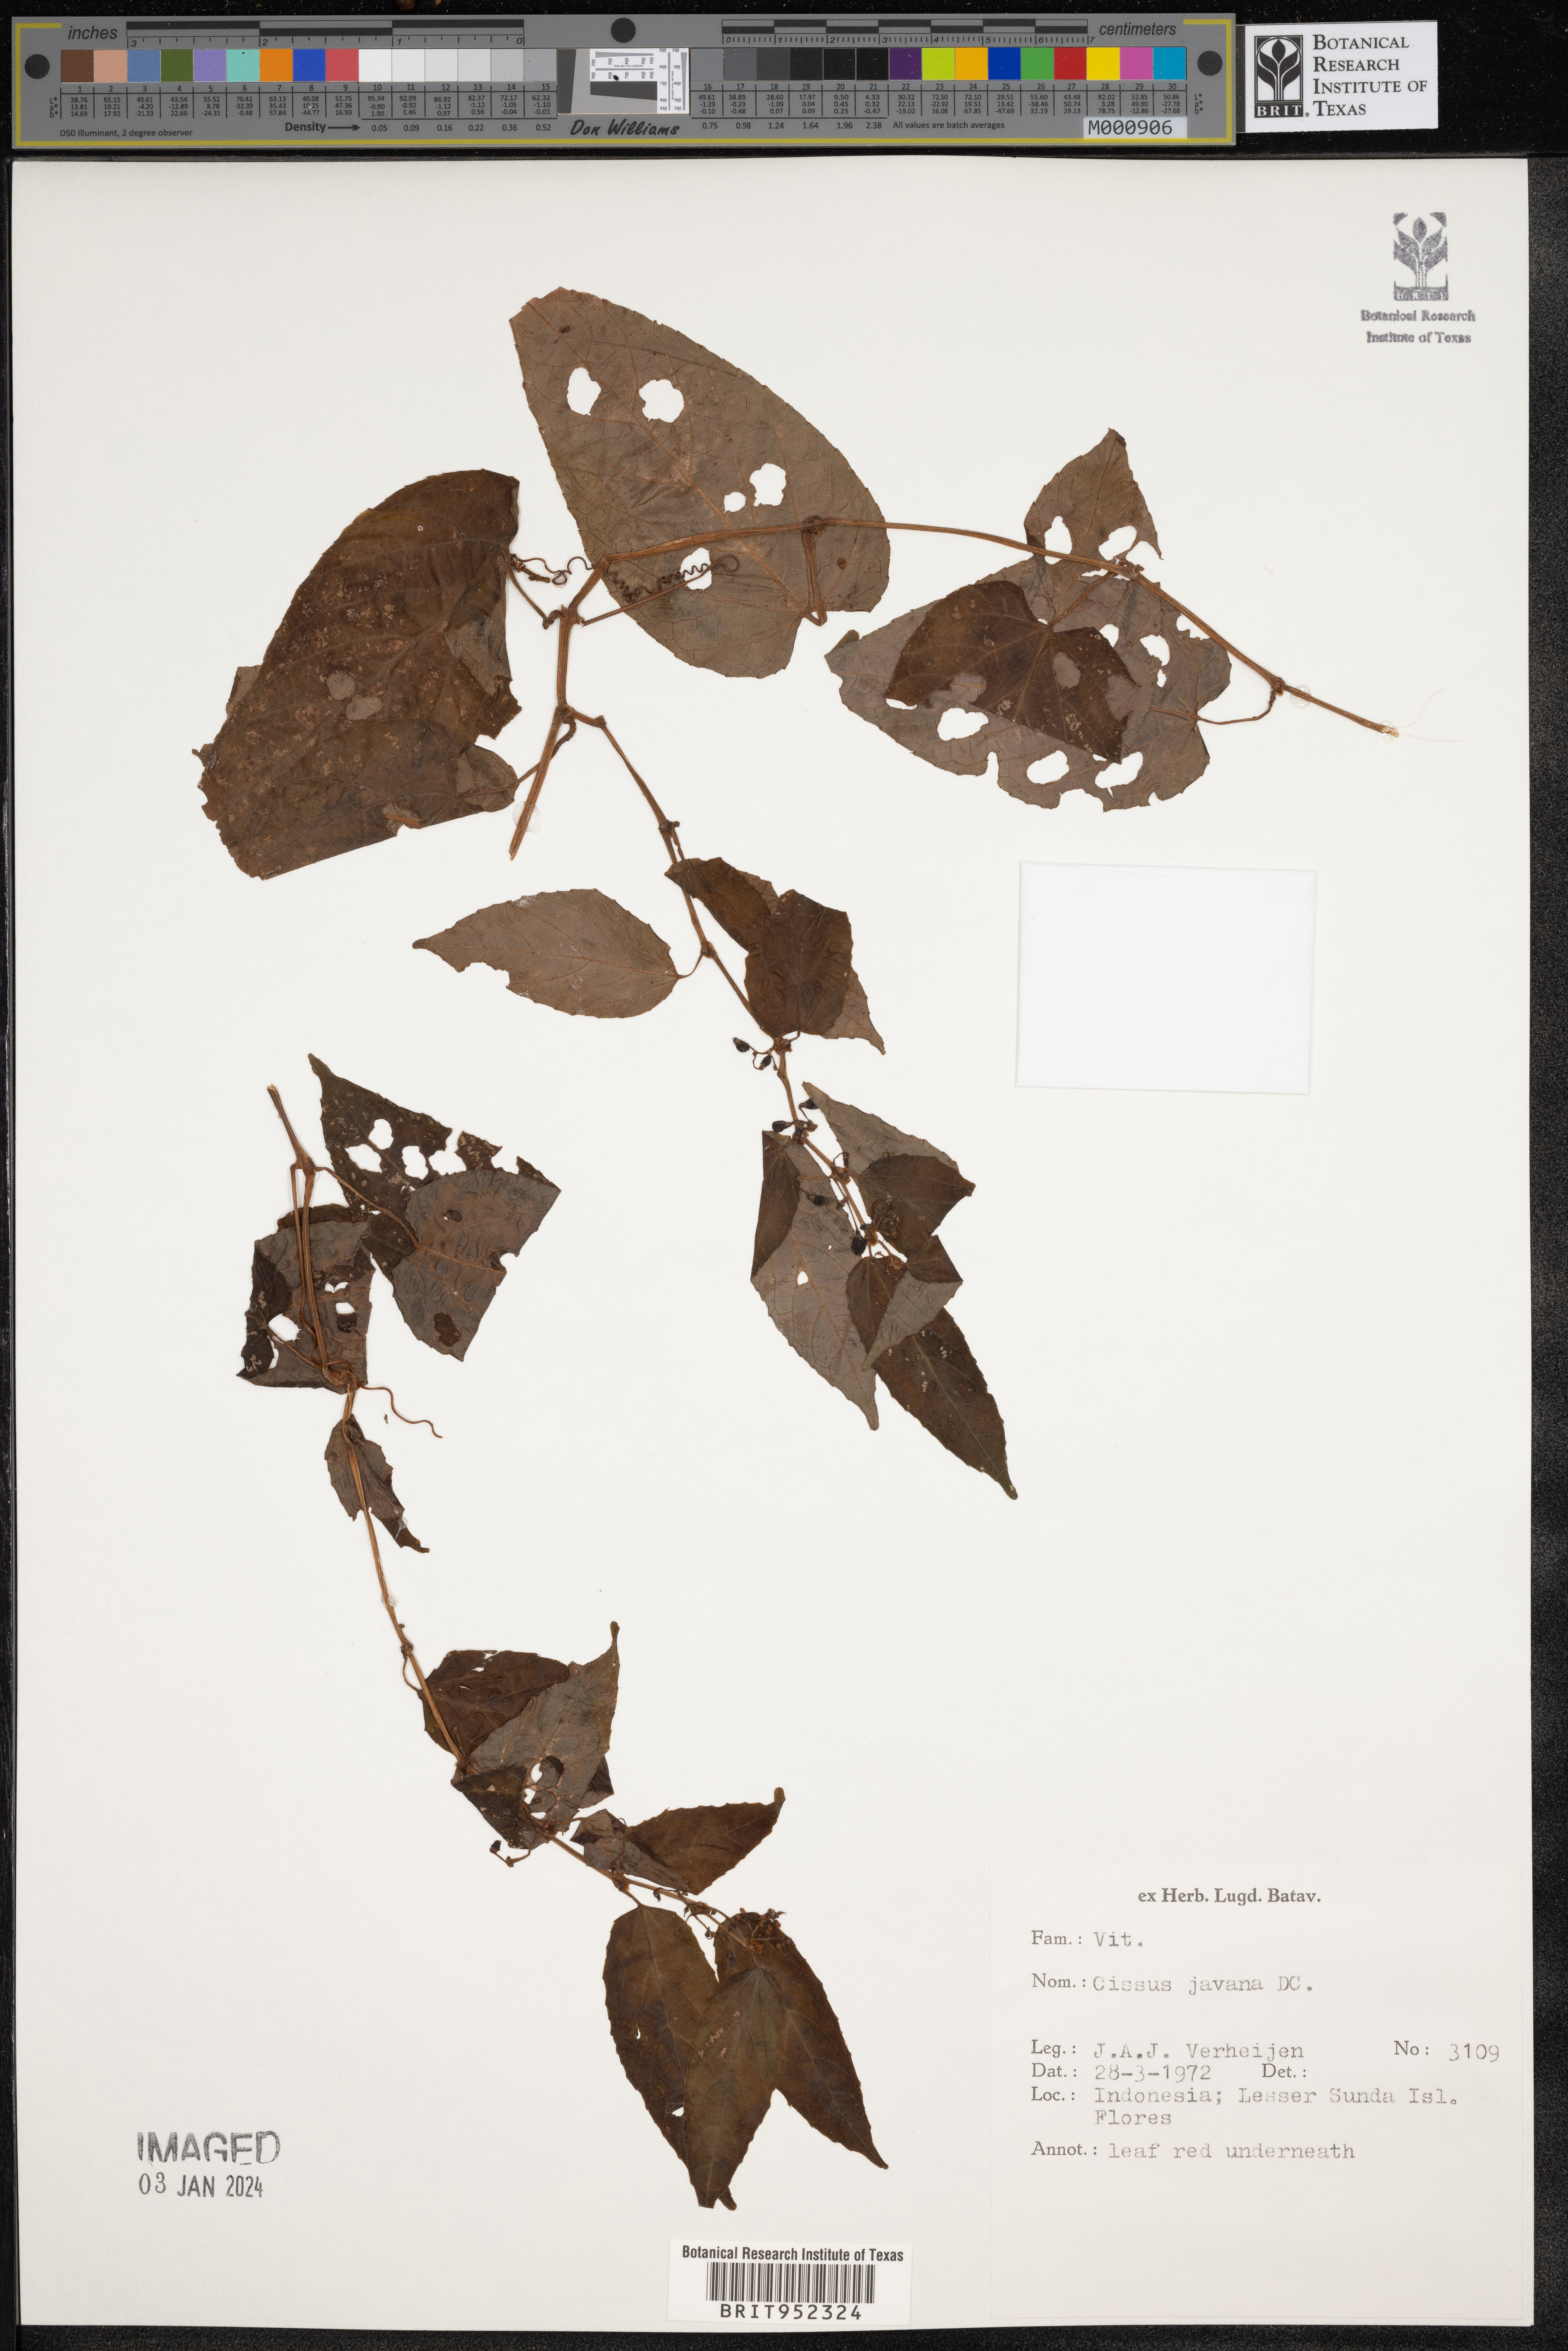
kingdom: Plantae
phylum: Tracheophyta
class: Magnoliopsida
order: Vitales
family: Vitaceae
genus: Cissus
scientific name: Cissus
